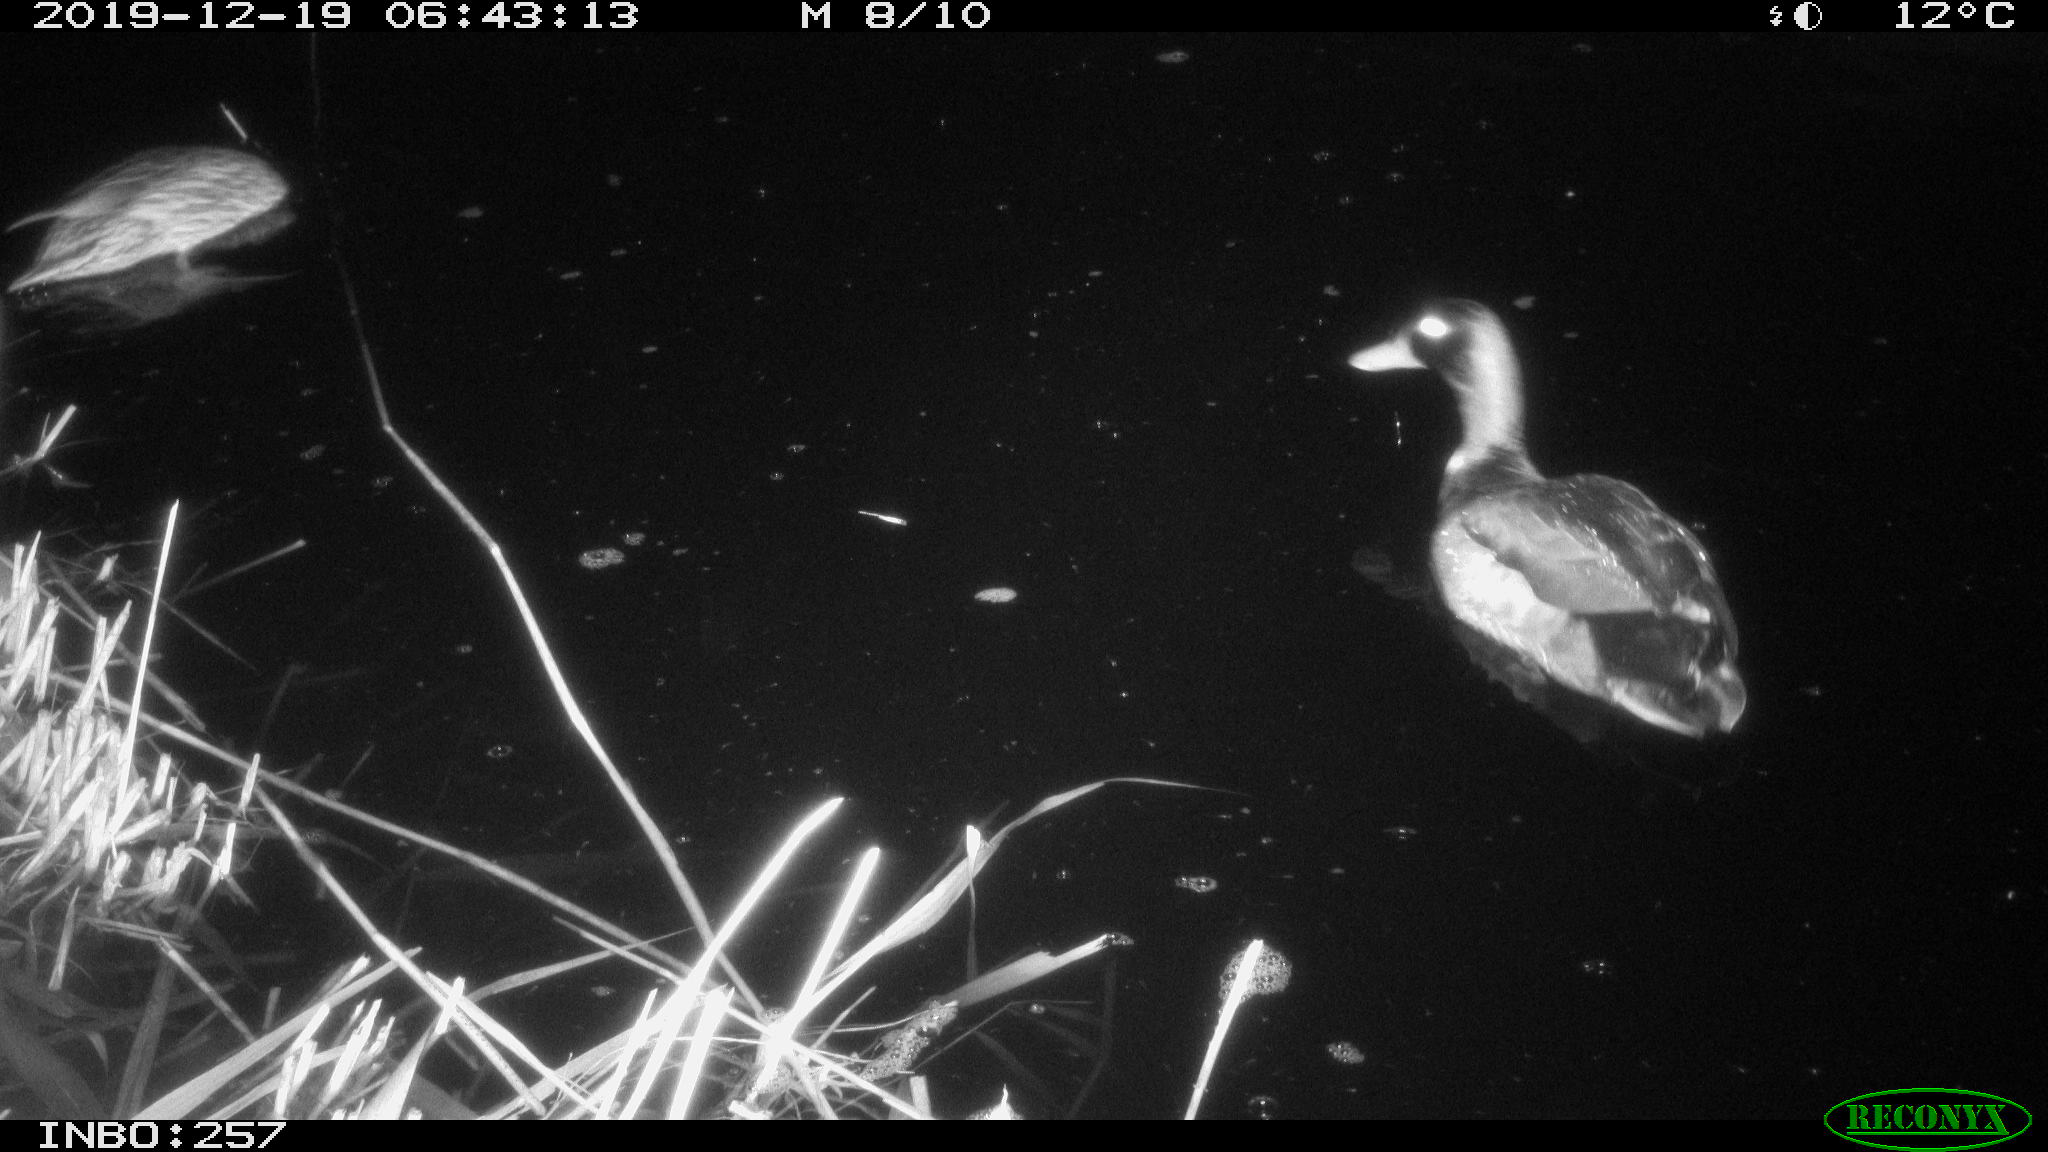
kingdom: Animalia
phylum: Chordata
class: Aves
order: Anseriformes
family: Anatidae
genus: Anas
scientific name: Anas platyrhynchos
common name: Mallard
